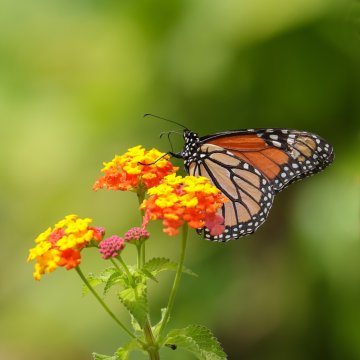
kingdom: Animalia
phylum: Arthropoda
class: Insecta
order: Lepidoptera
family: Nymphalidae
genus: Danaus
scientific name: Danaus plexippus
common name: Monarch
